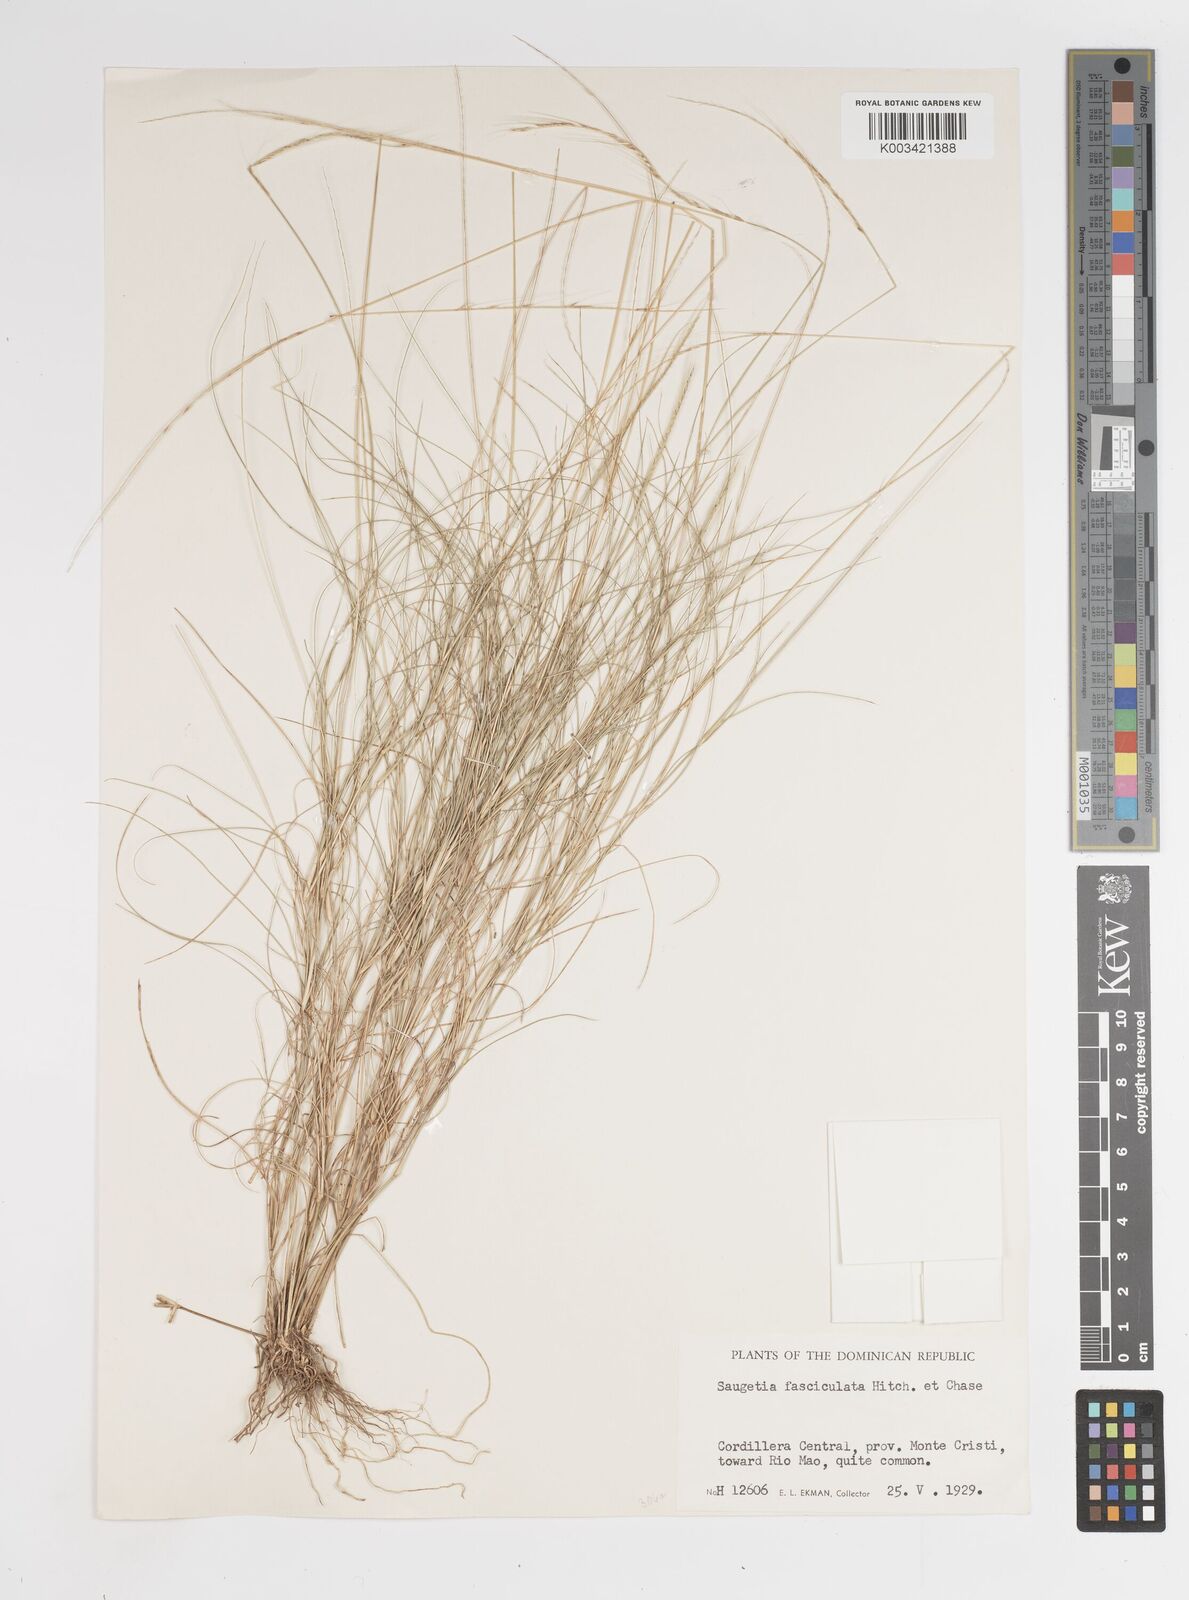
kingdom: Plantae
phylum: Tracheophyta
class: Liliopsida
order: Poales
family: Poaceae
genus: Enteropogon
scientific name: Enteropogon
